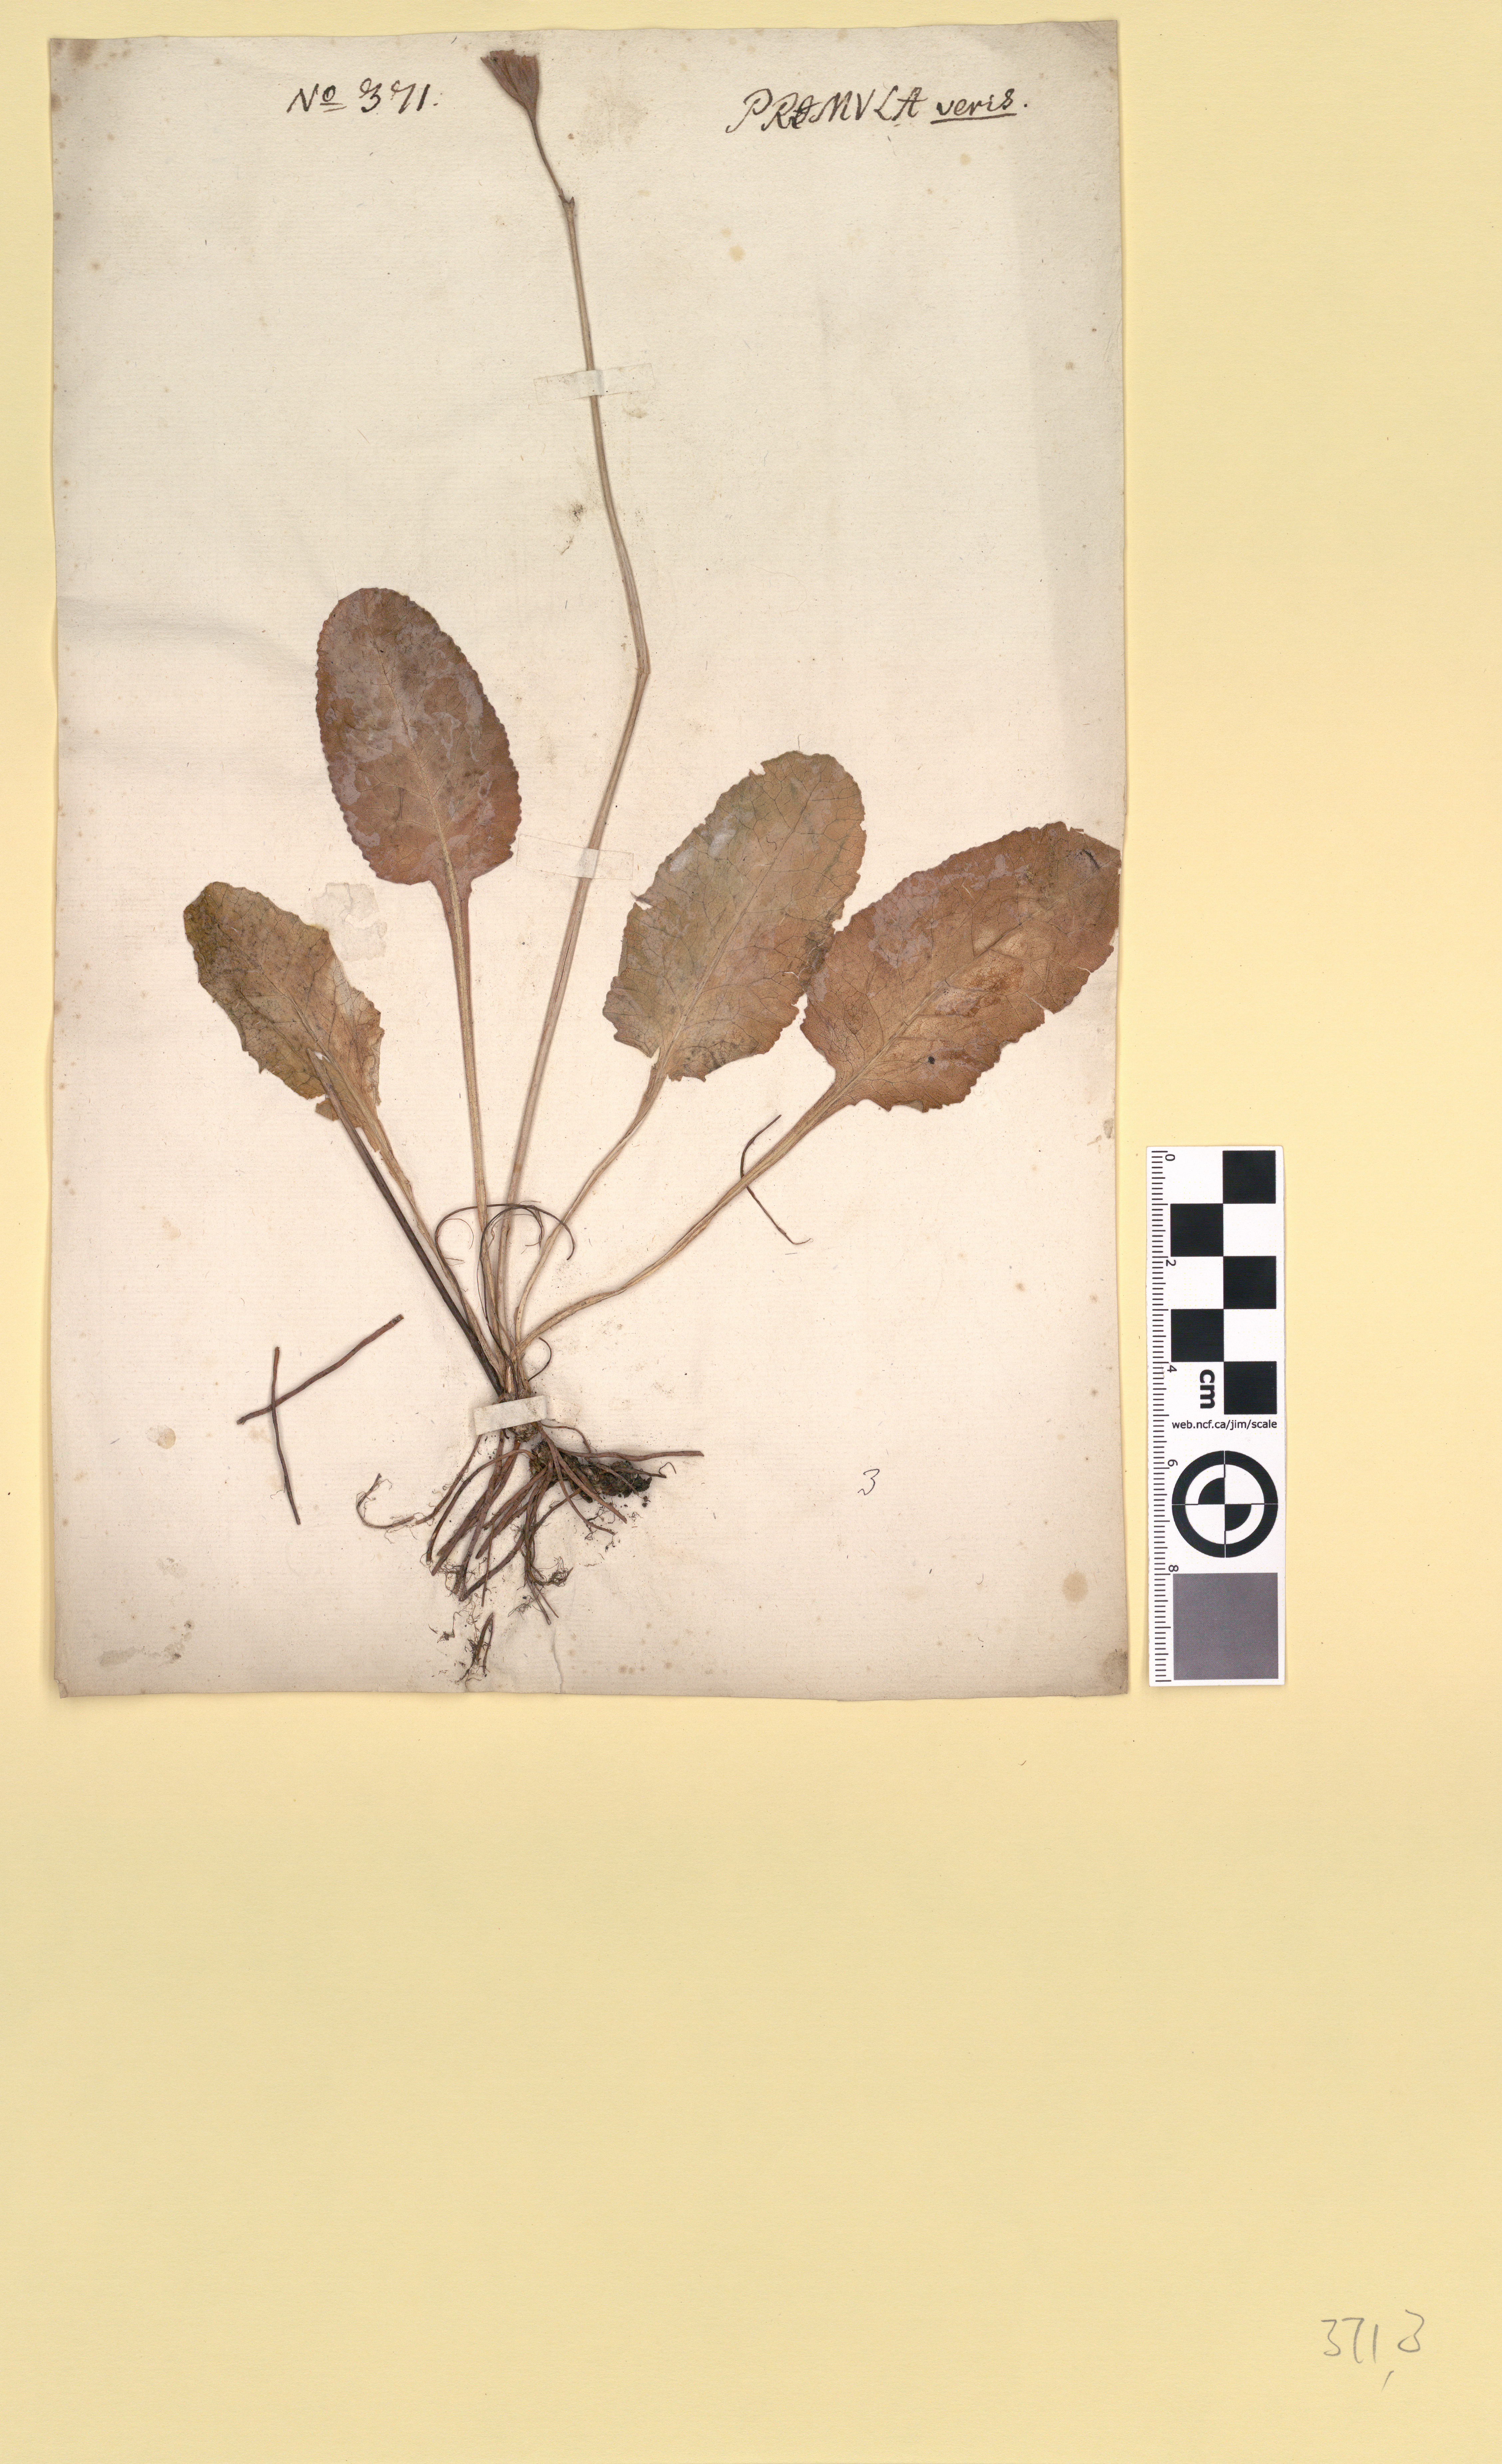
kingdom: Plantae
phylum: Tracheophyta
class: Magnoliopsida
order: Ericales
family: Primulaceae
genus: Primula
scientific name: Primula veris
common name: Cowslip
